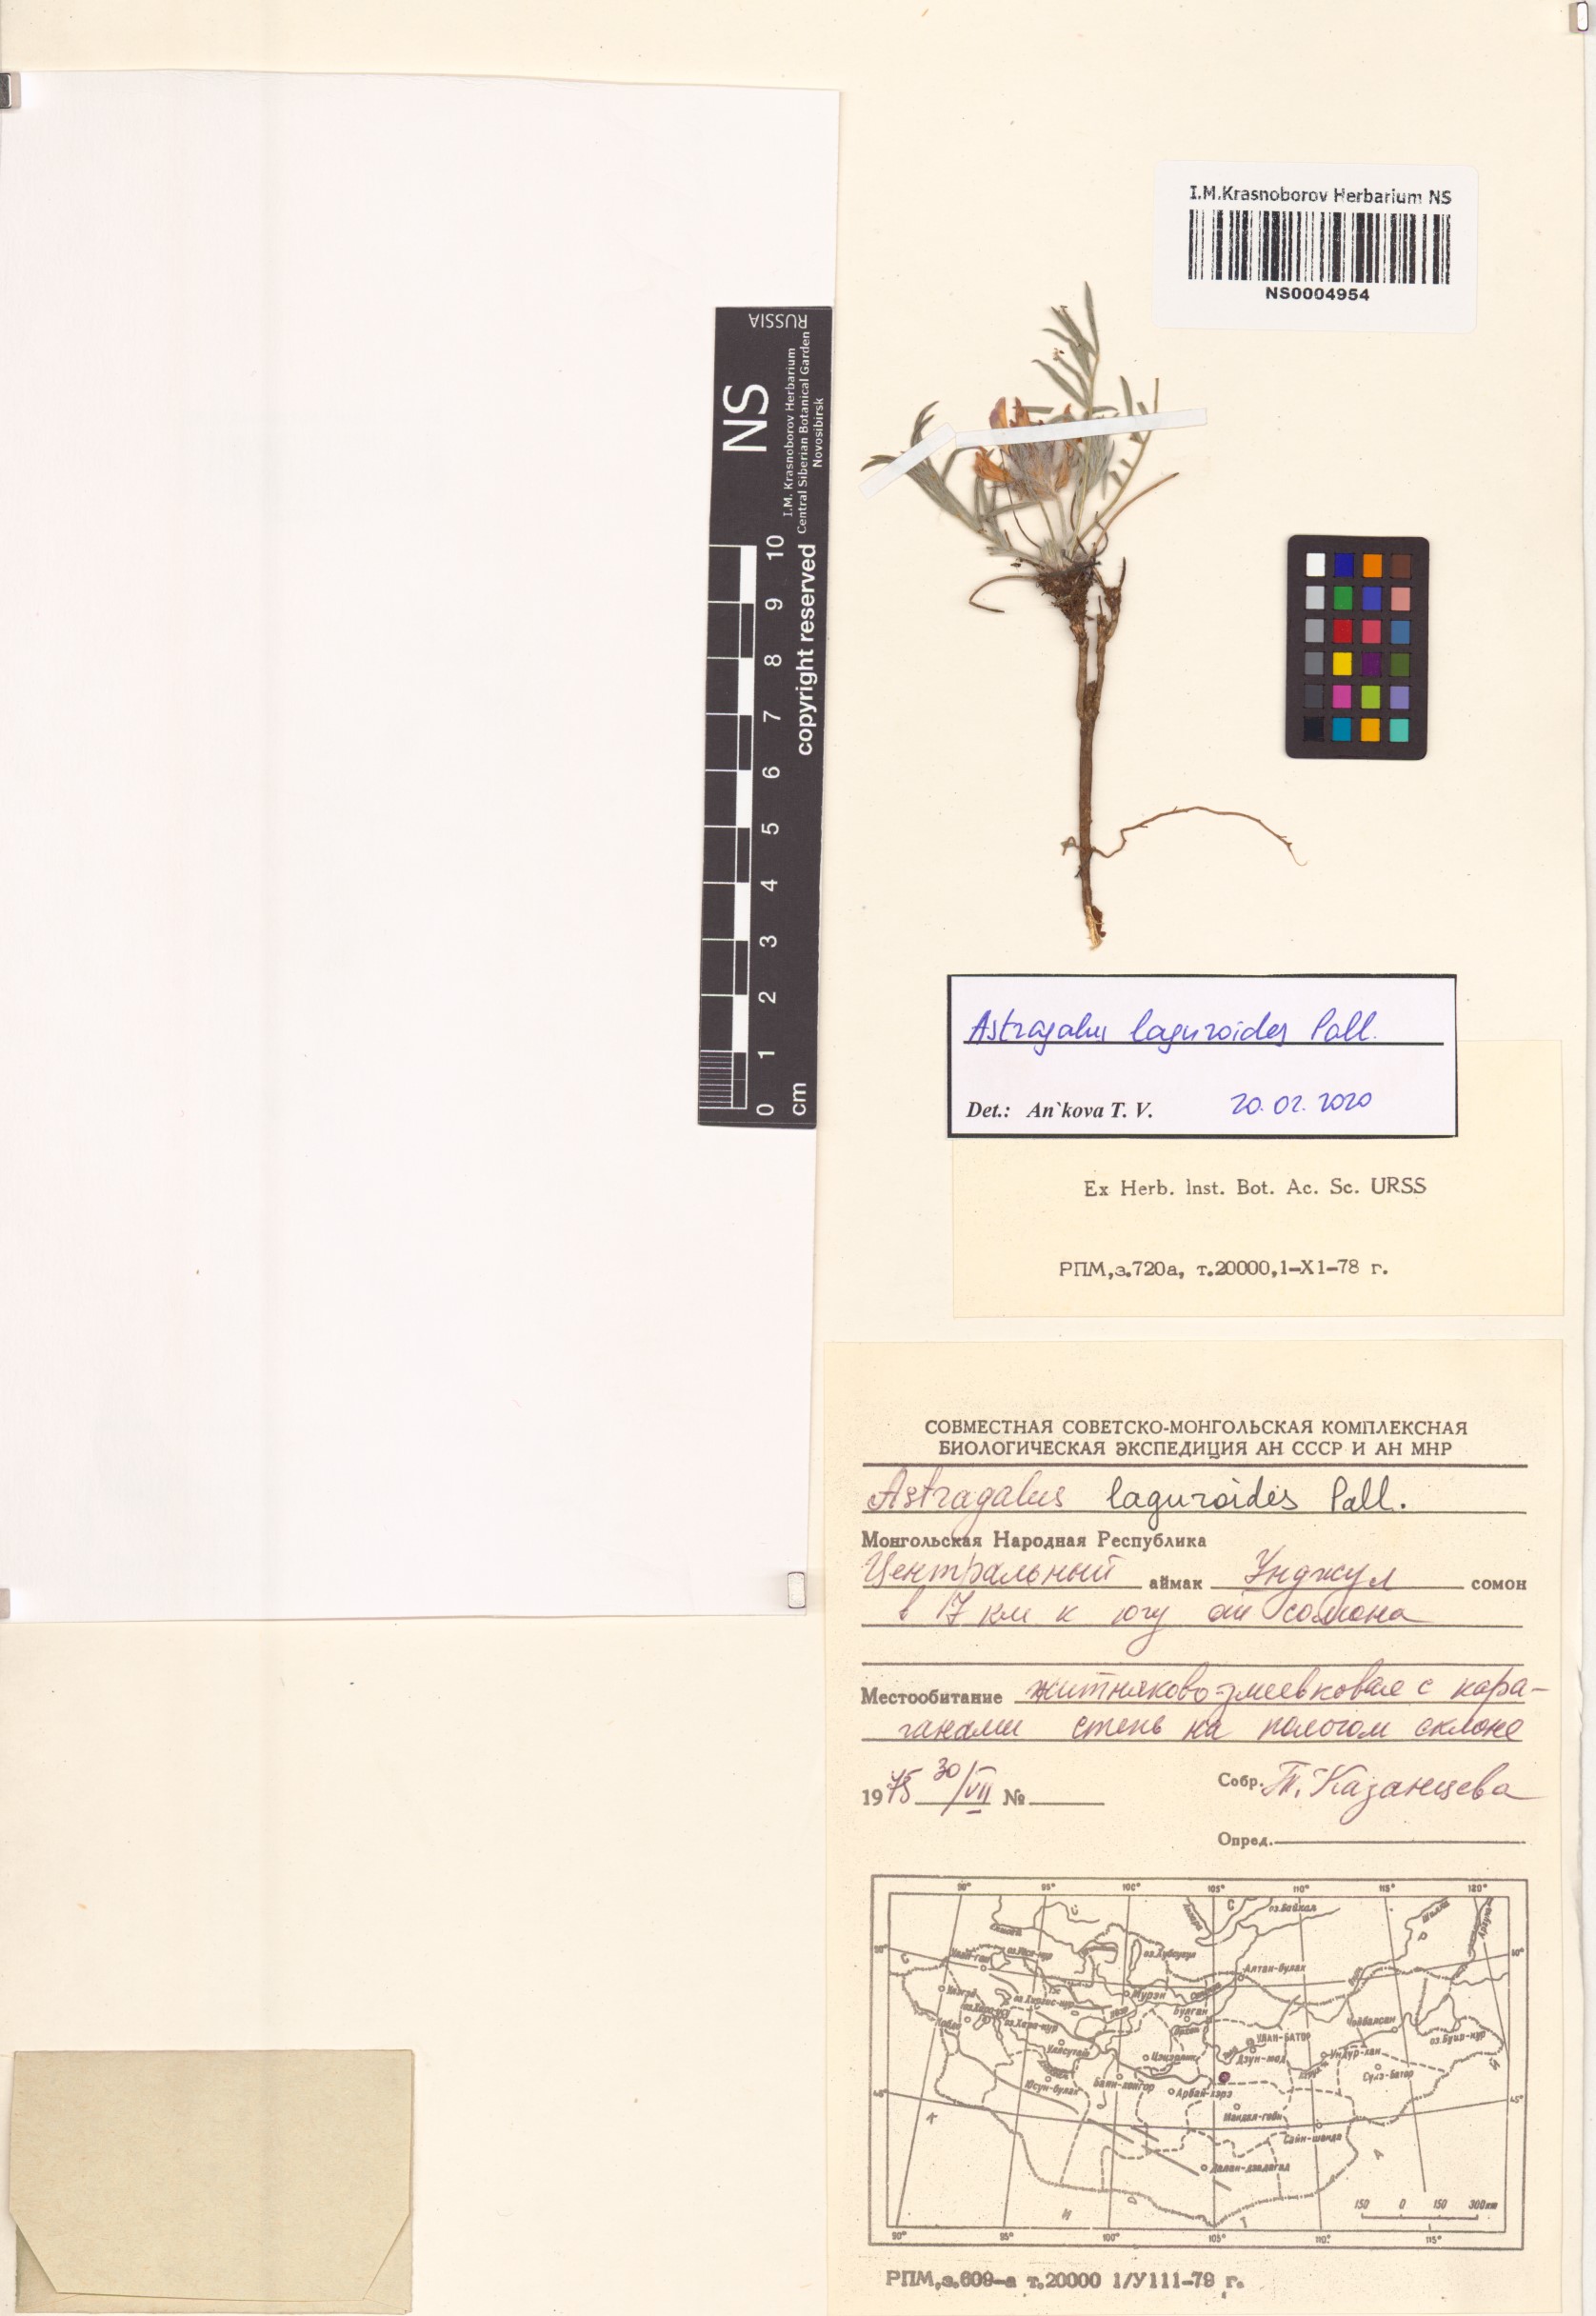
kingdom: Plantae
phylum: Tracheophyta
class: Magnoliopsida
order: Fabales
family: Fabaceae
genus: Astragalus
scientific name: Astragalus laguroides
